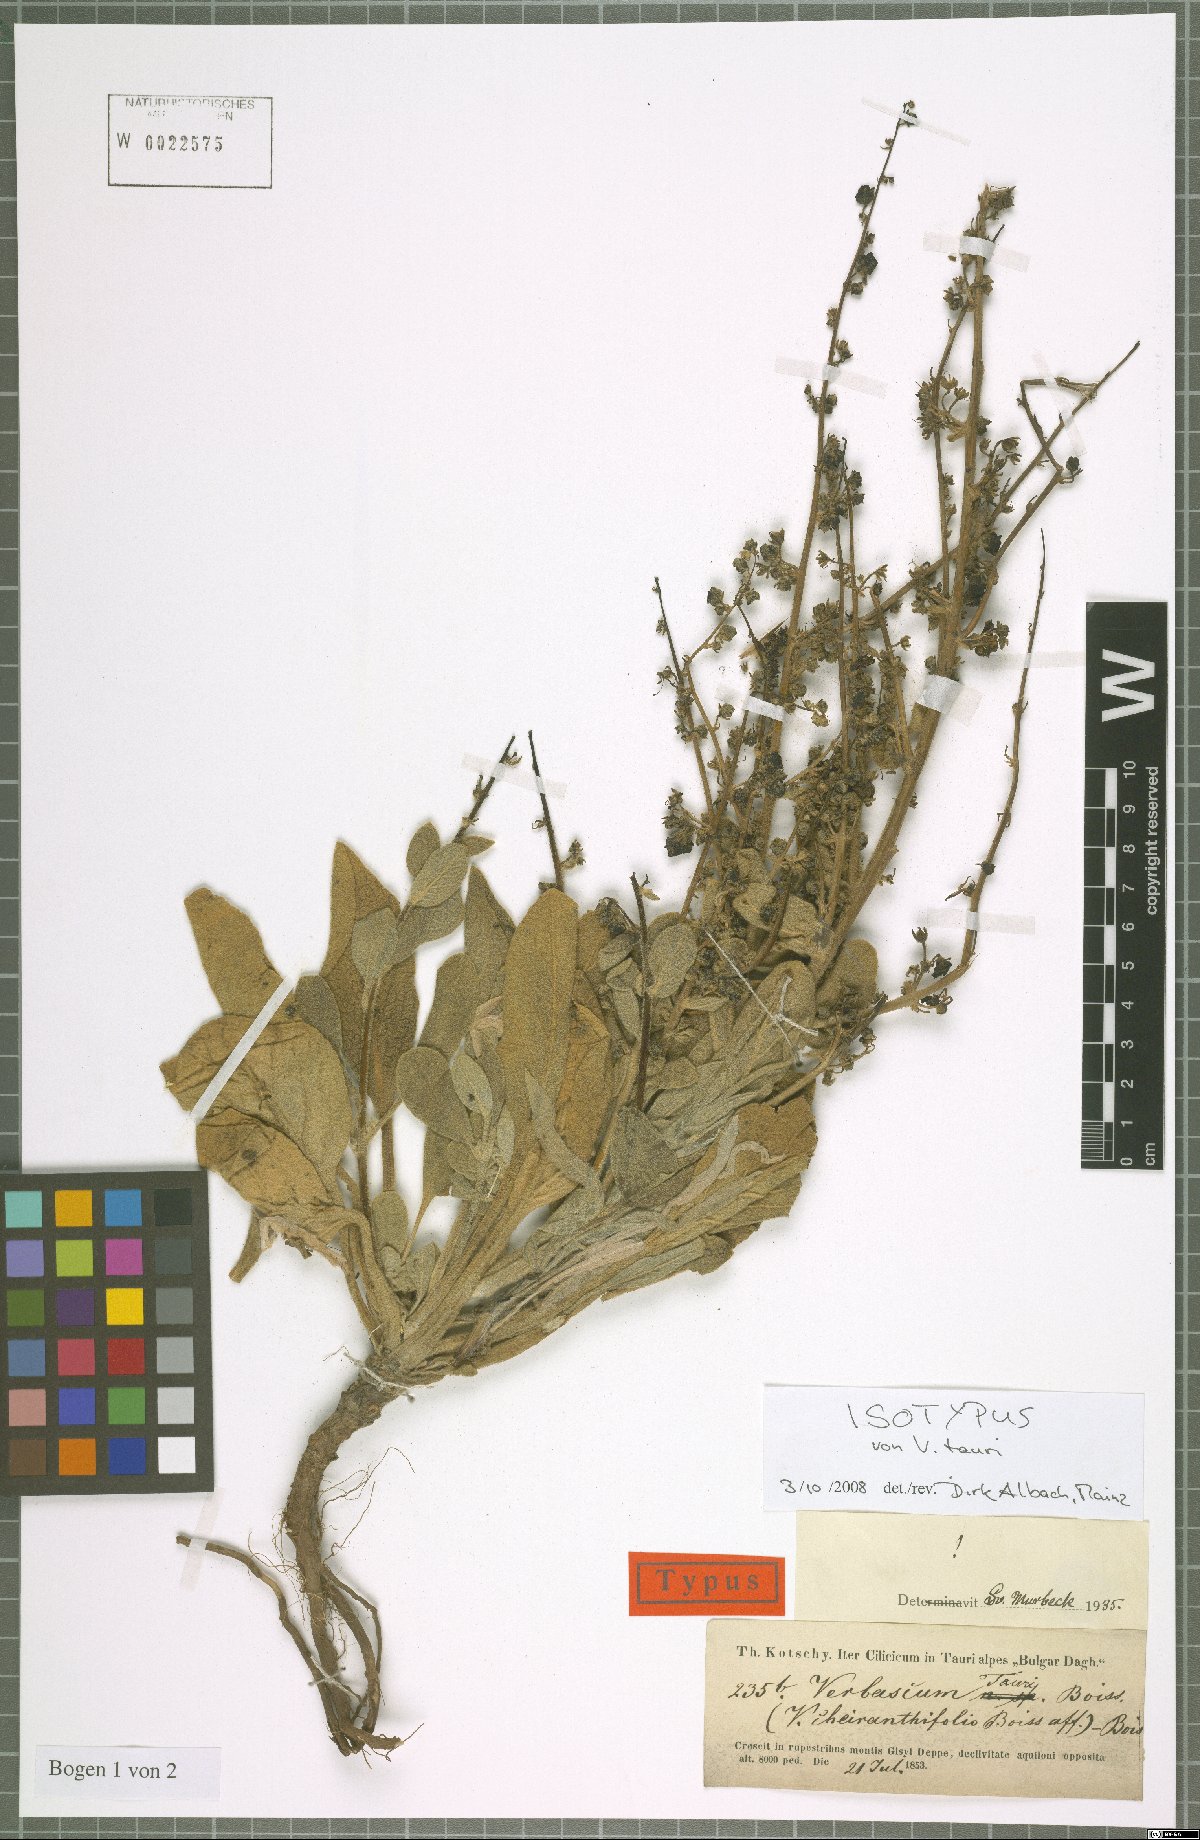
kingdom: Plantae
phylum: Tracheophyta
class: Magnoliopsida
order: Lamiales
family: Scrophulariaceae
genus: Verbascum
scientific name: Verbascum tauri
